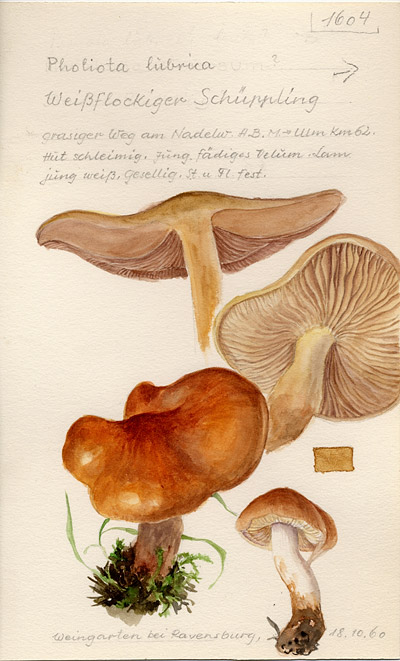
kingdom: Fungi
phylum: Basidiomycota
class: Agaricomycetes
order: Agaricales
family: Strophariaceae
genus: Pholiota
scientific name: Pholiota lubrica
